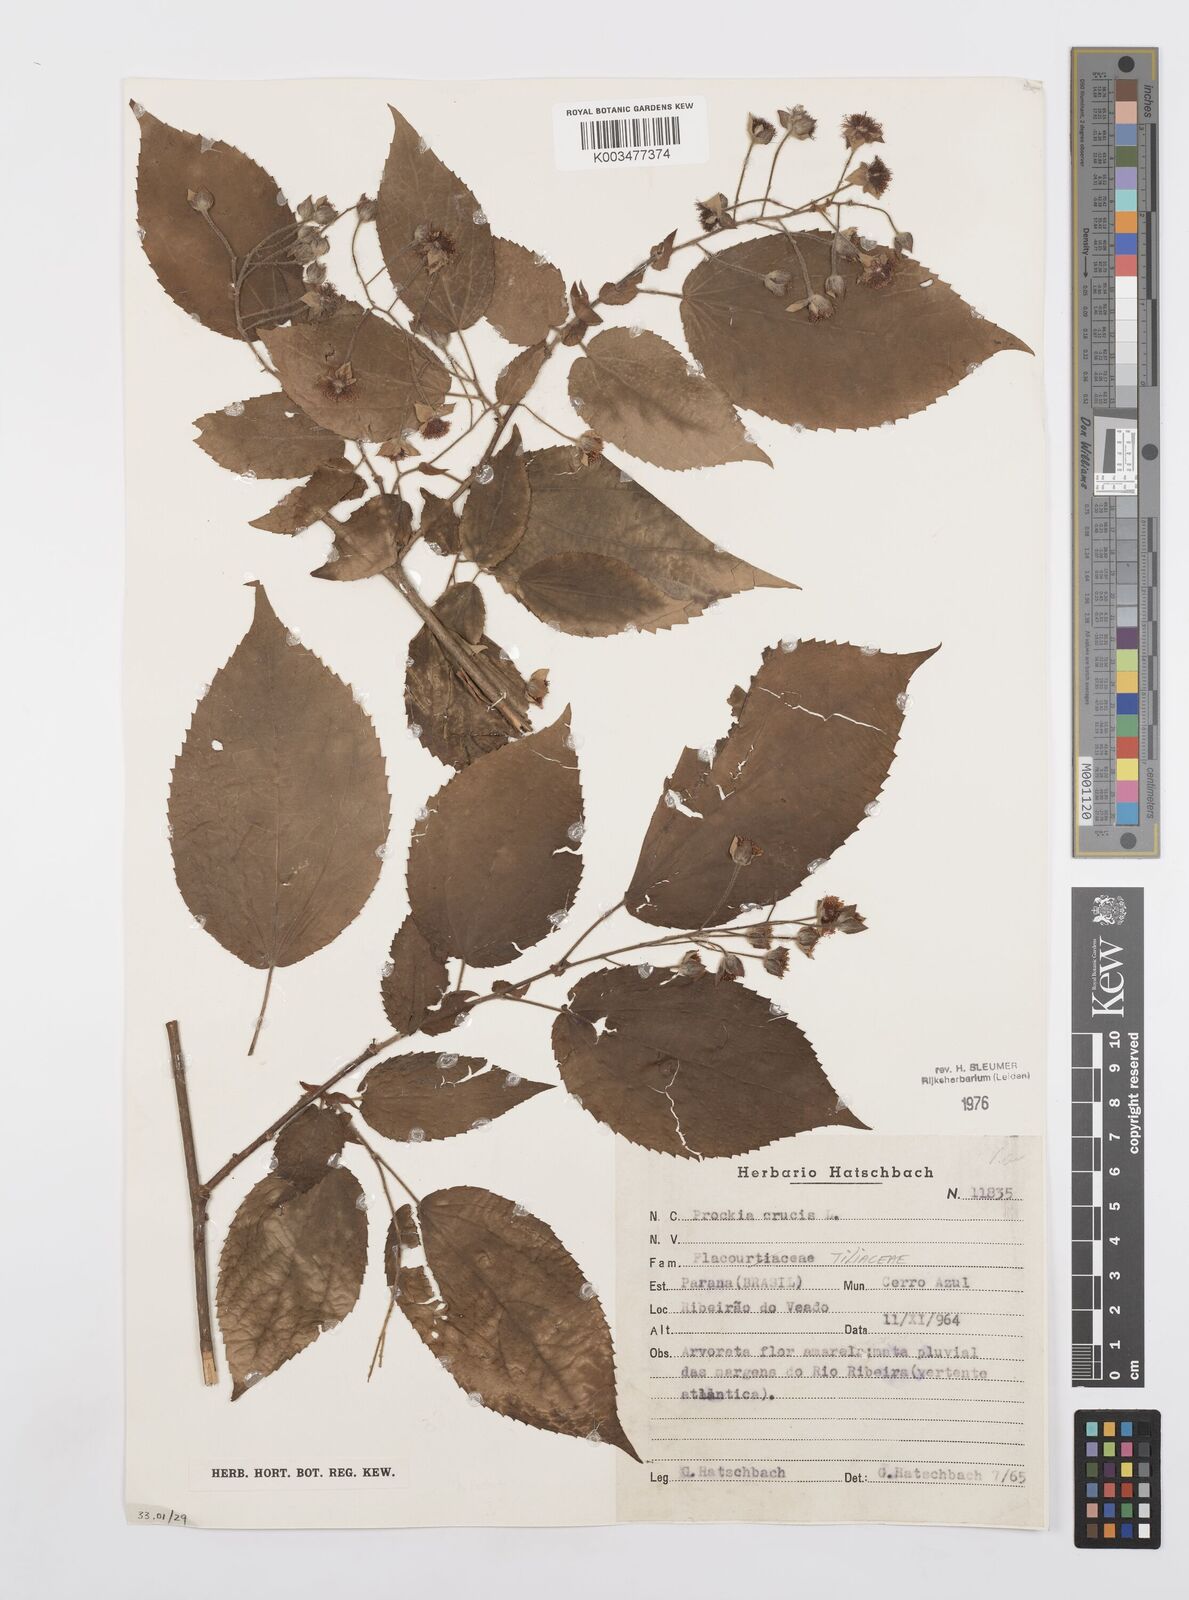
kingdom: Plantae
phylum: Tracheophyta
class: Magnoliopsida
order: Malpighiales
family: Salicaceae
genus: Prockia
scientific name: Prockia crucis
